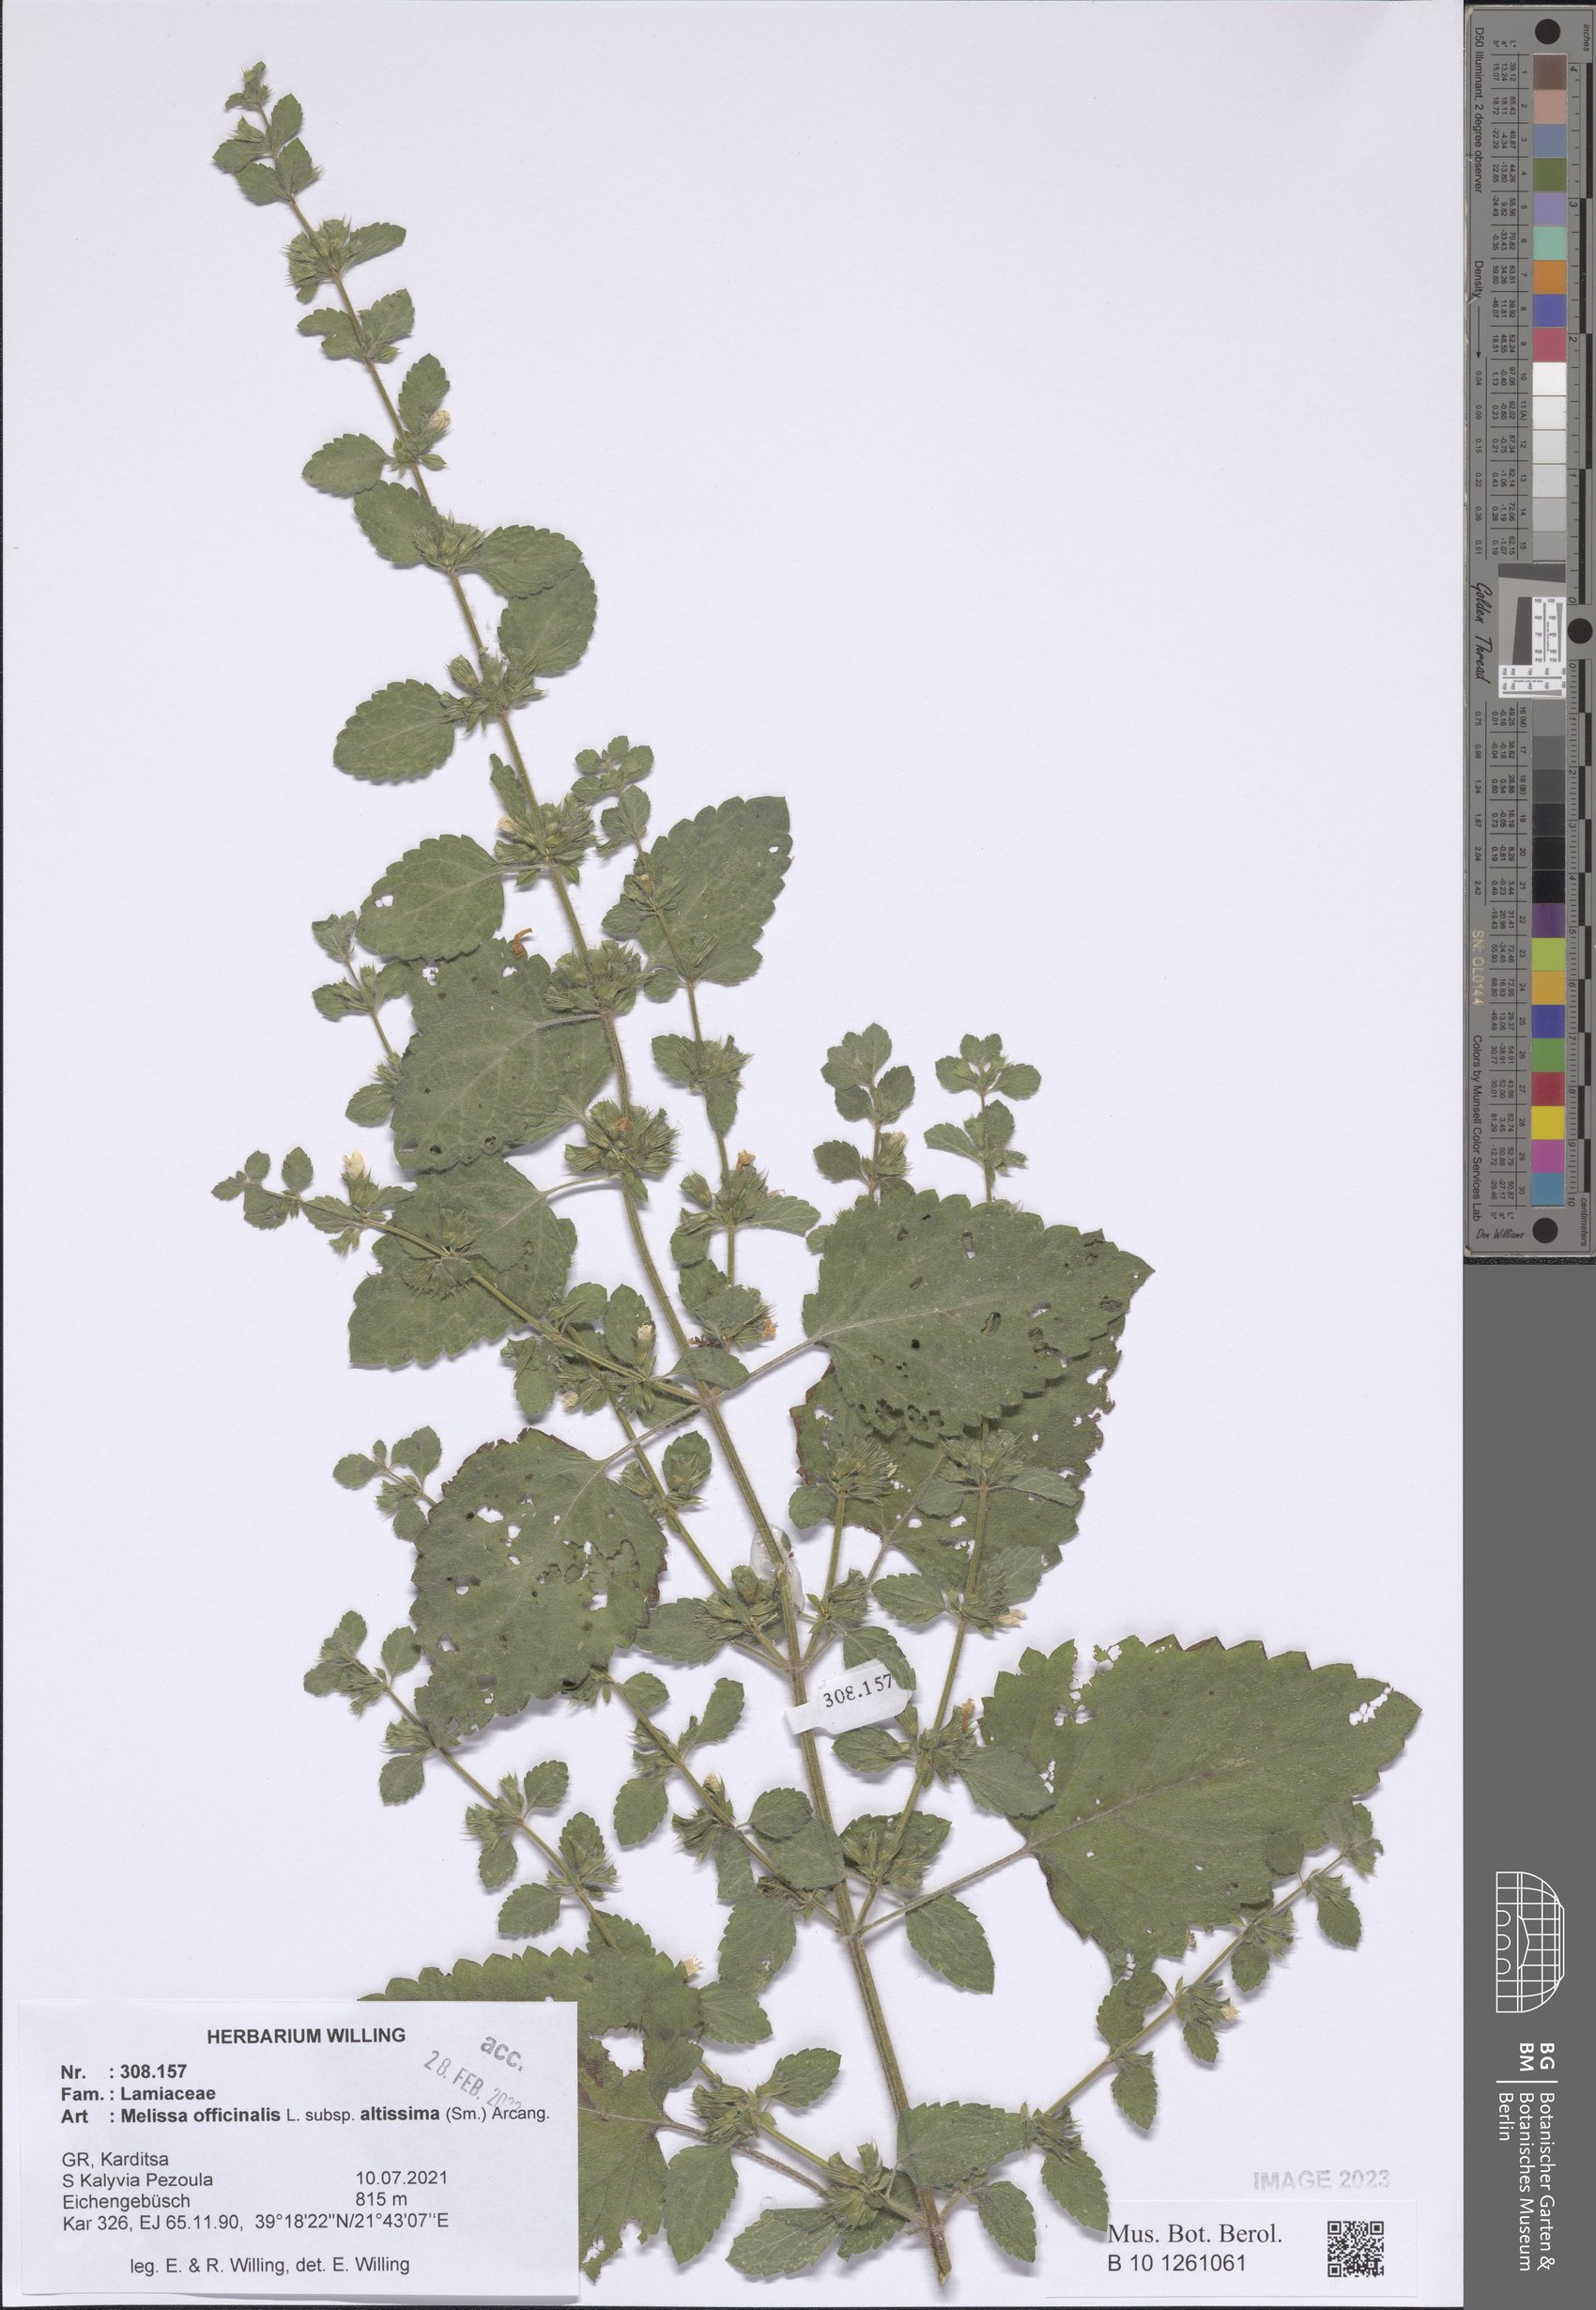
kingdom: Plantae
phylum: Tracheophyta
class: Magnoliopsida
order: Lamiales
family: Lamiaceae
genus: Melissa
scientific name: Melissa officinalis
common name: Balm
